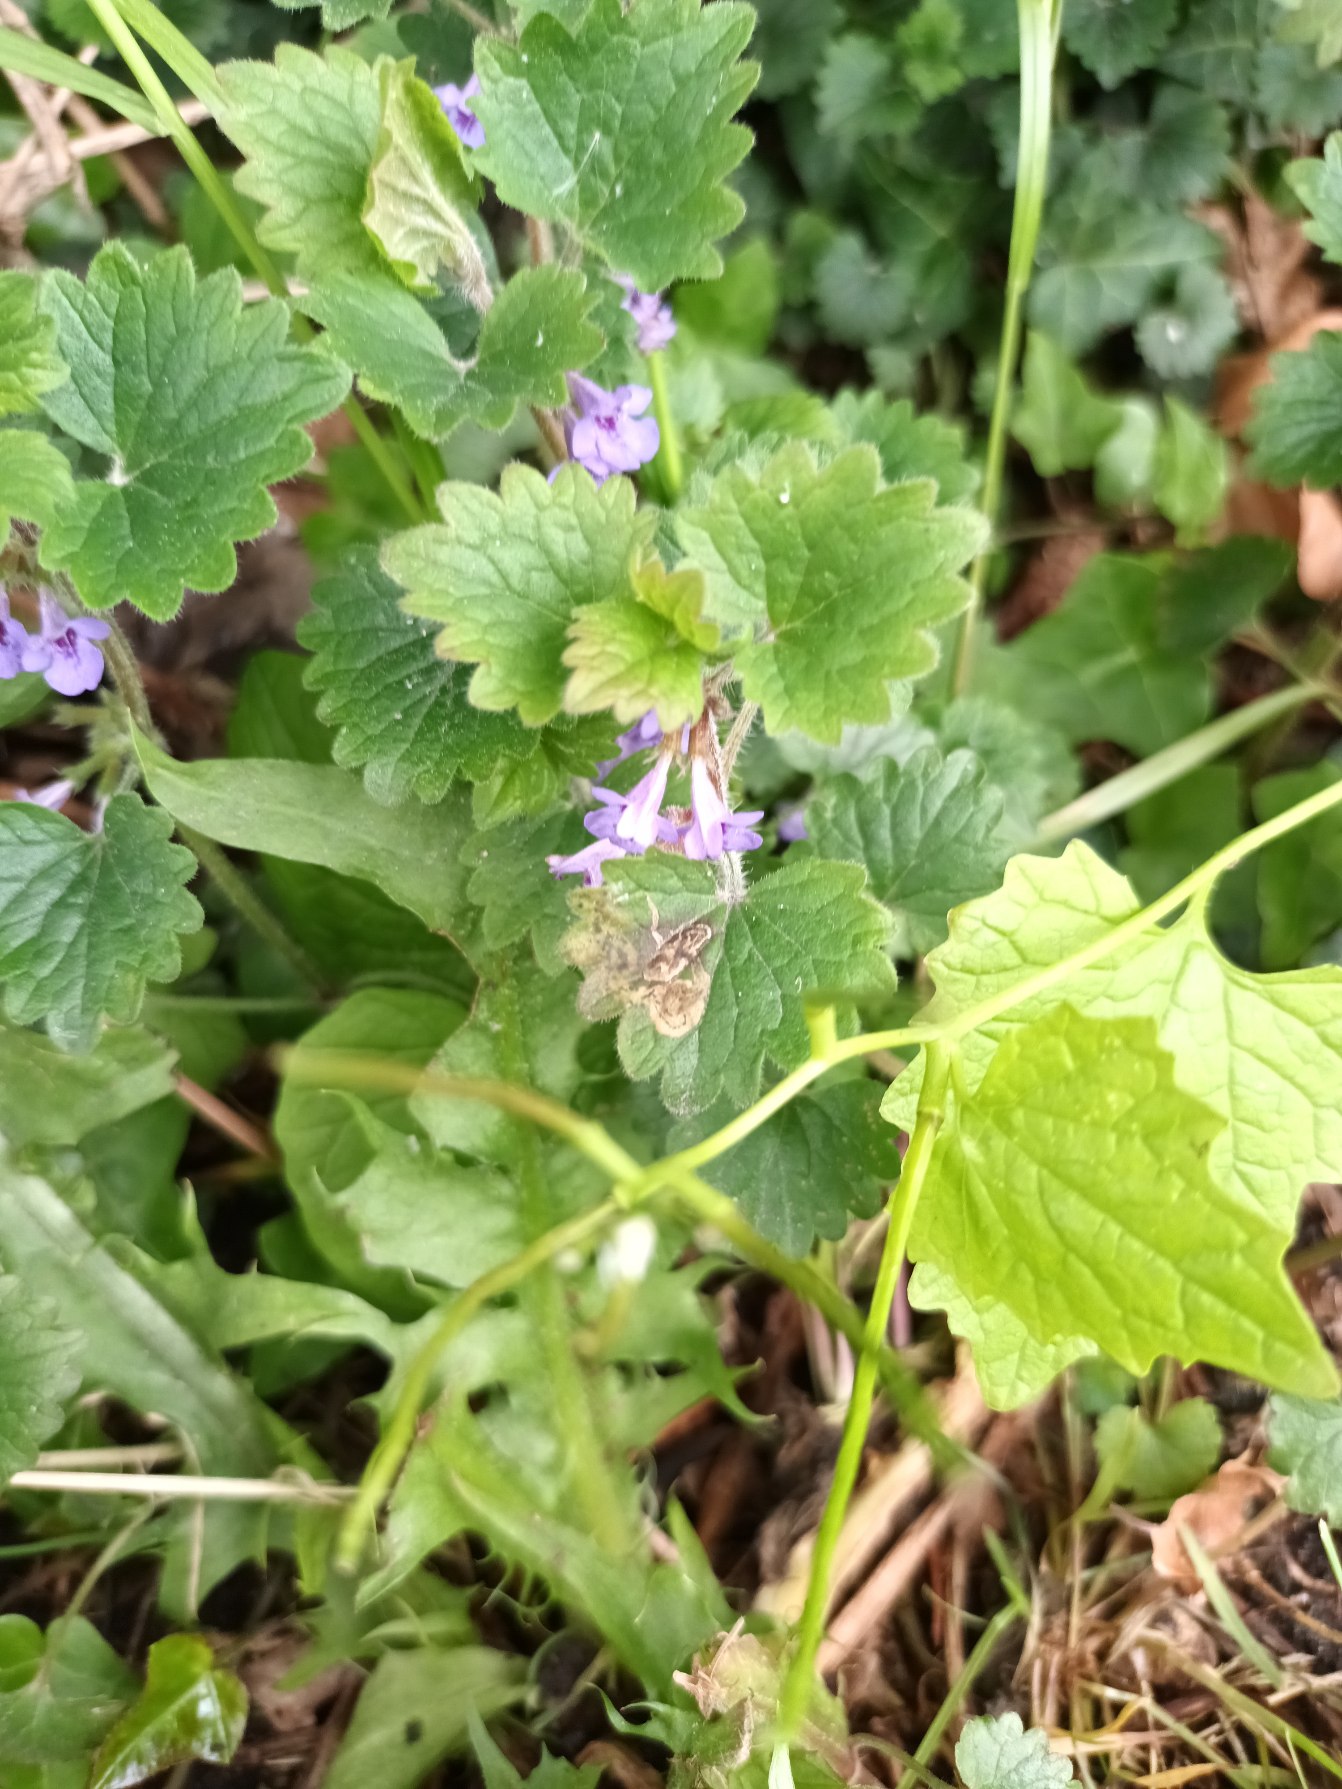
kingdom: Plantae
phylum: Tracheophyta
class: Magnoliopsida
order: Lamiales
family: Lamiaceae
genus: Glechoma
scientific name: Glechoma hederacea
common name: Korsknap
